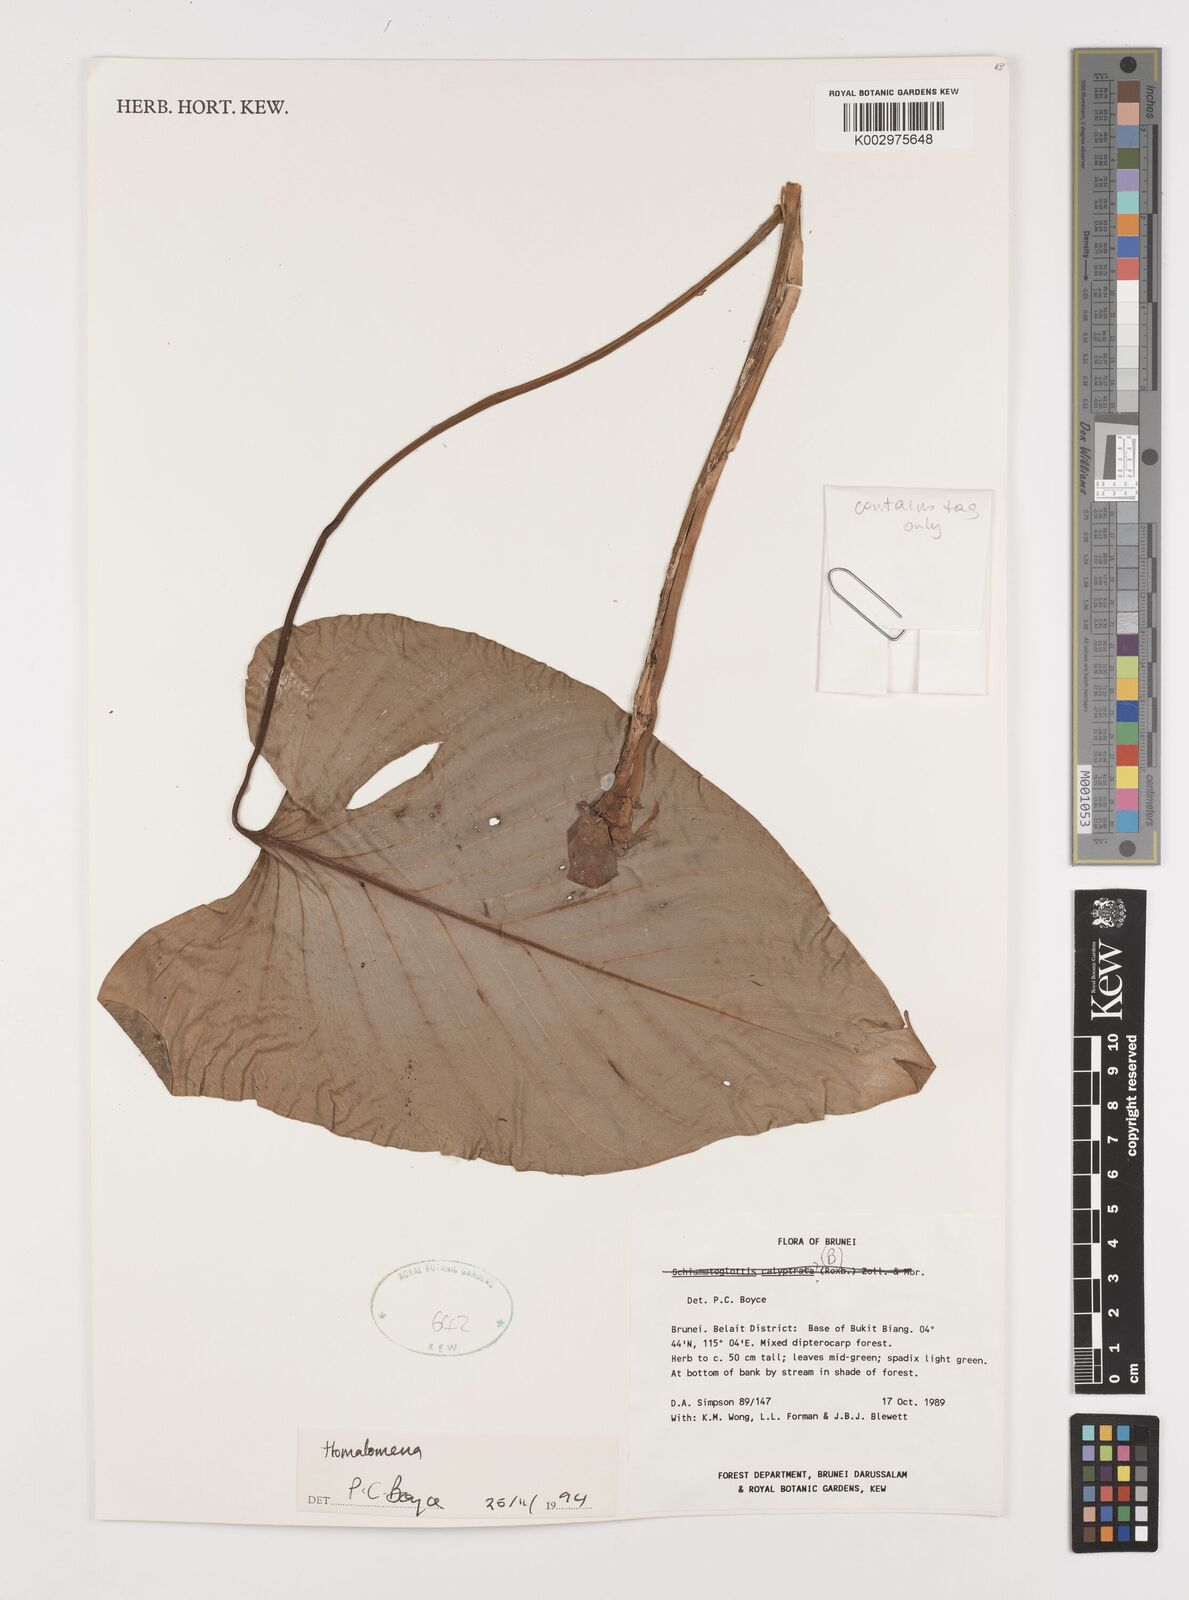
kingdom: Plantae
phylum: Tracheophyta
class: Liliopsida
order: Alismatales
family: Araceae
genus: Homalomena
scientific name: Homalomena
